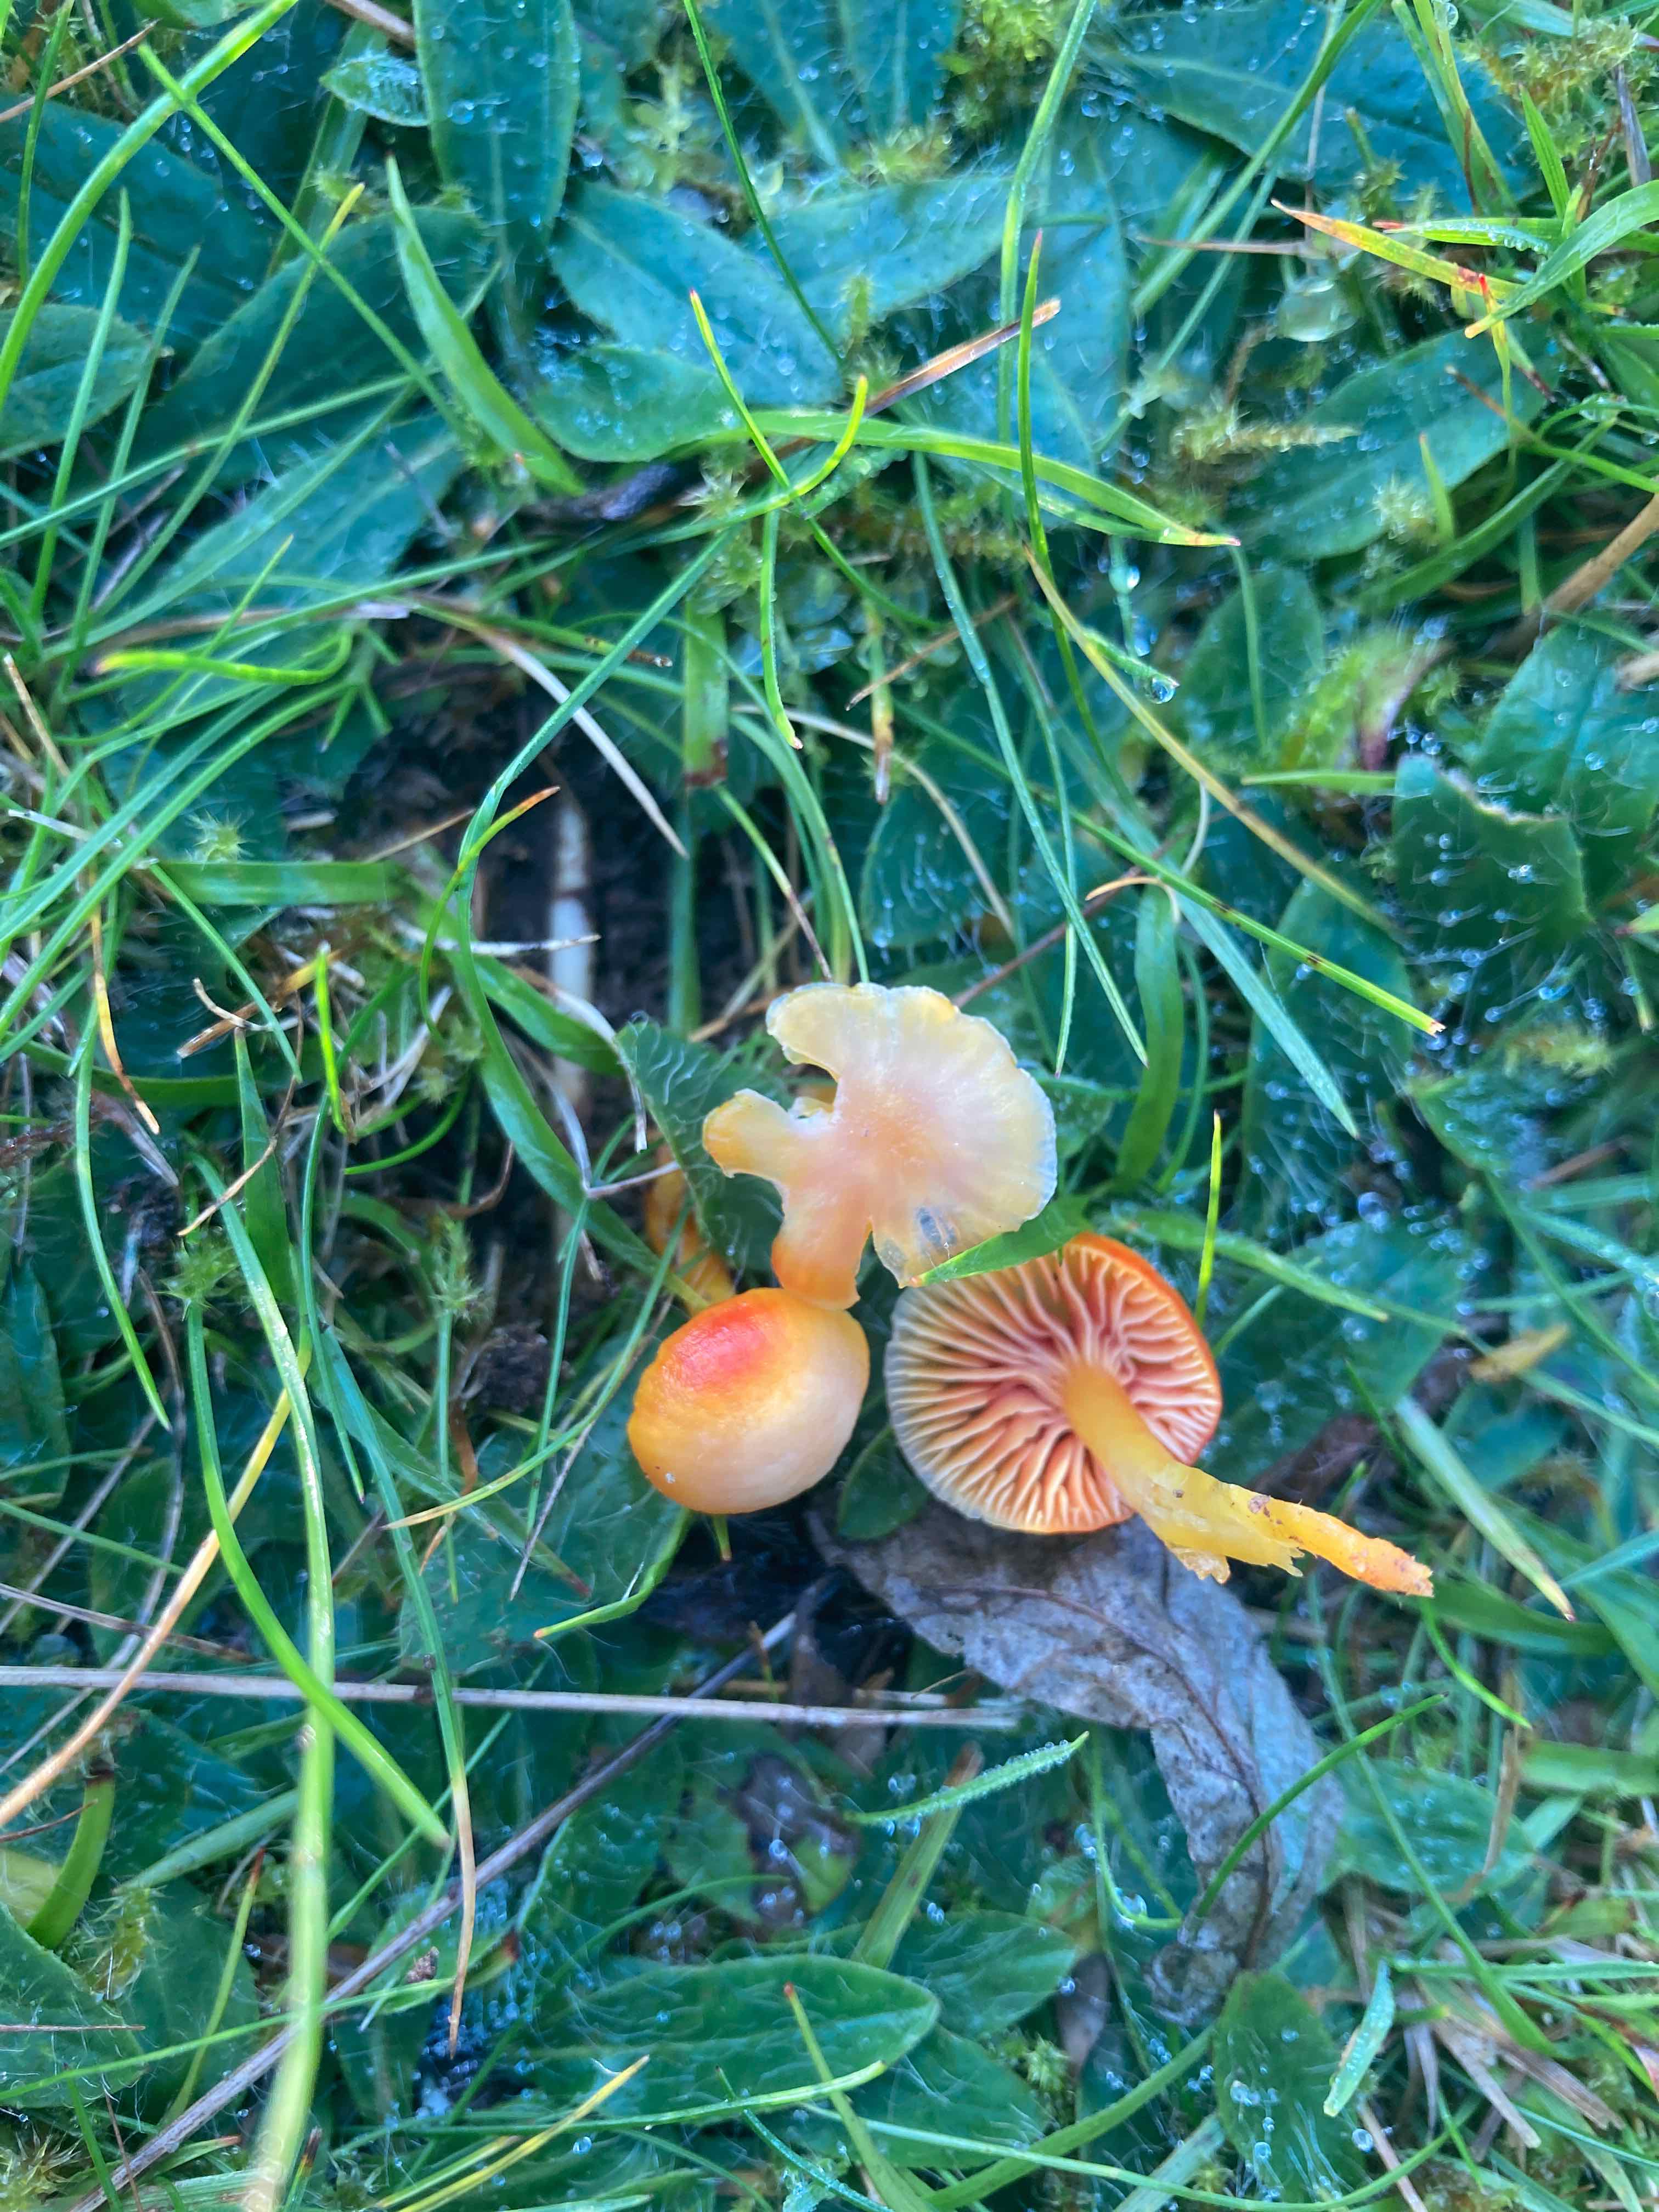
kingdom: Fungi
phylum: Basidiomycota
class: Agaricomycetes
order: Agaricales
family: Hygrophoraceae
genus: Hygrocybe
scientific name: Hygrocybe
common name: vokshat
